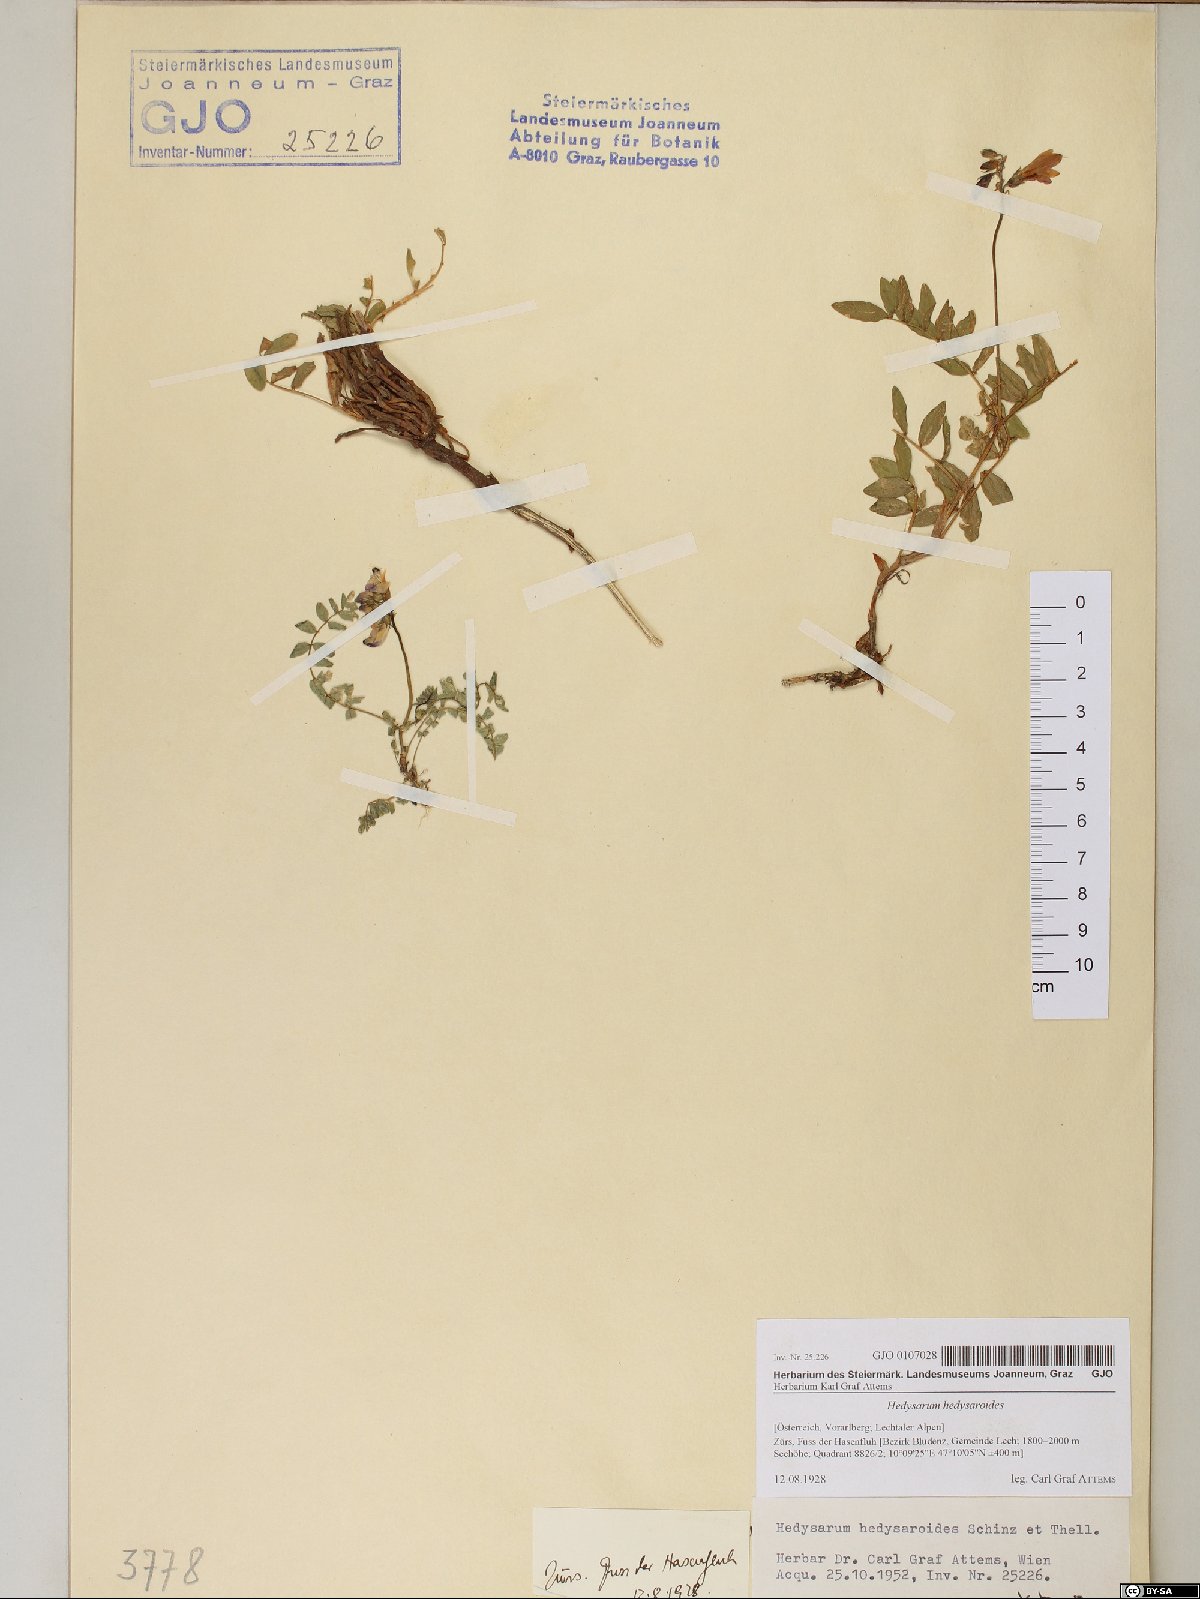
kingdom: Plantae
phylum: Tracheophyta
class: Magnoliopsida
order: Fabales
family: Fabaceae
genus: Hedysarum
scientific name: Hedysarum hedysaroides
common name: Alpine french-honeysuckle
